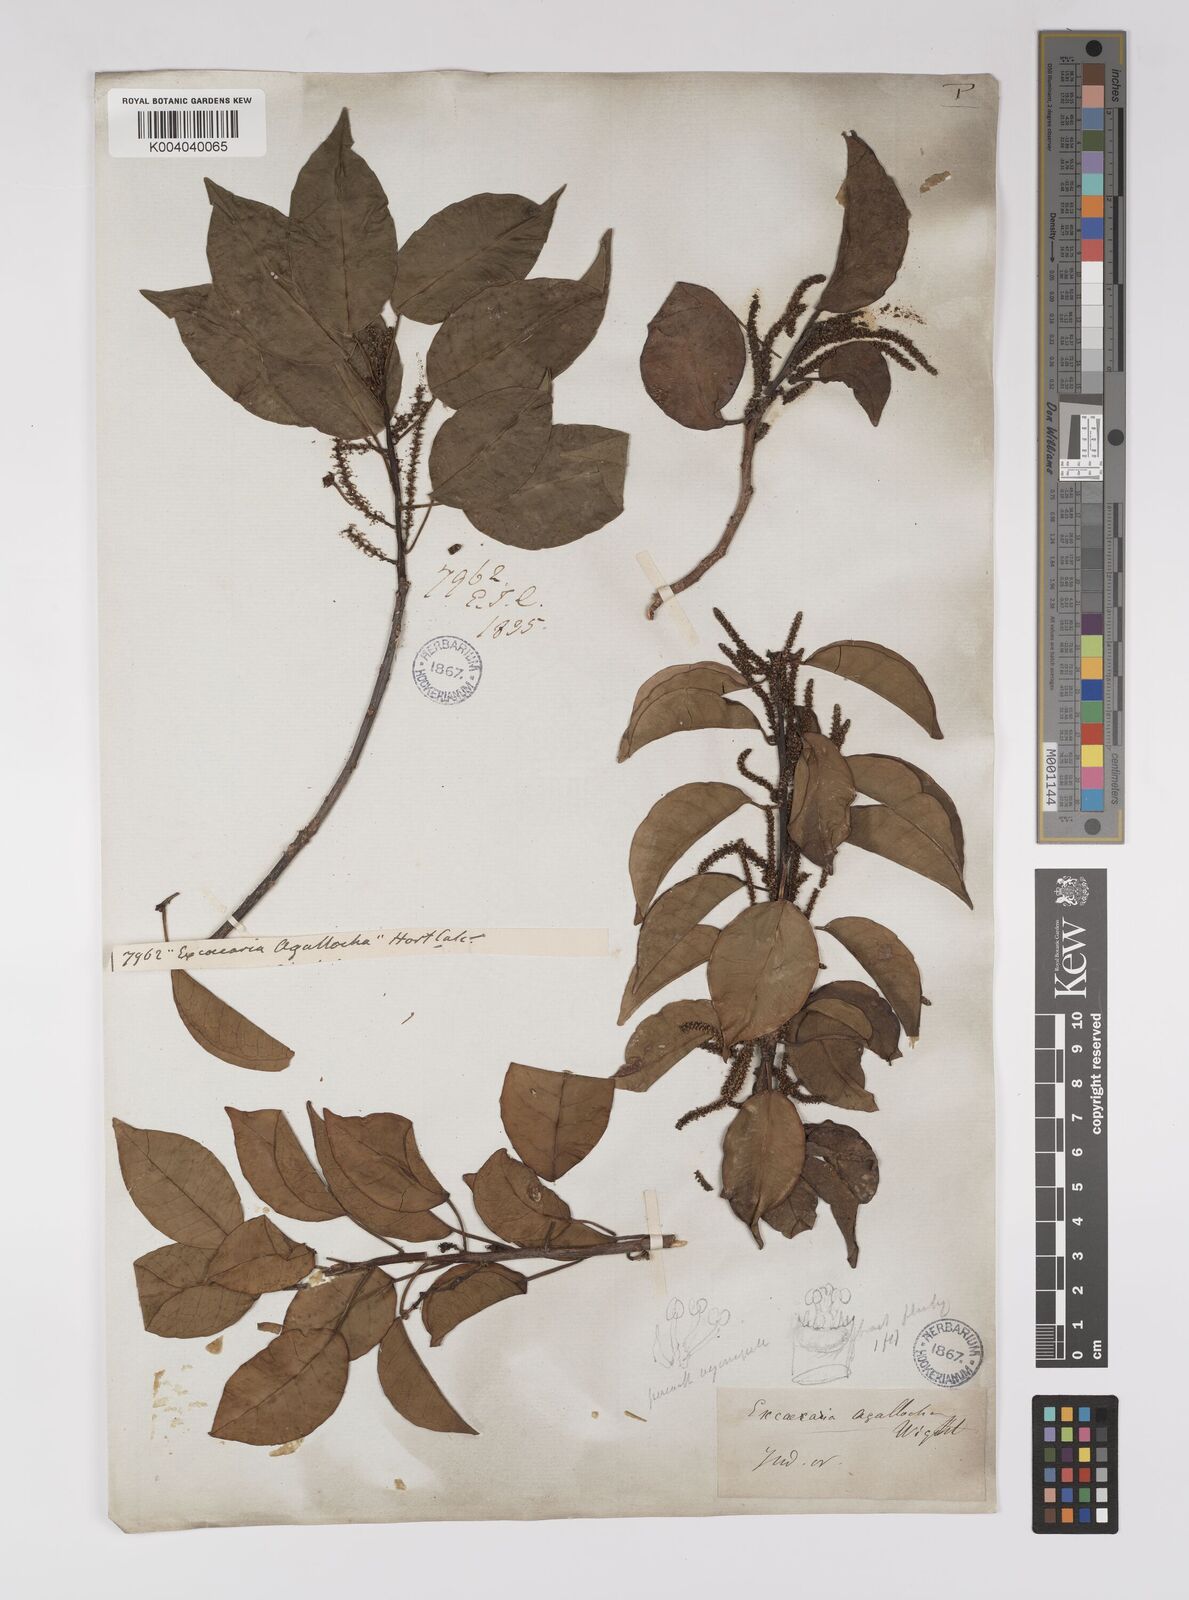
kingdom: Plantae
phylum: Tracheophyta
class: Magnoliopsida
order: Malpighiales
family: Euphorbiaceae
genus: Excoecaria
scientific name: Excoecaria agallocha
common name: River poisontree
